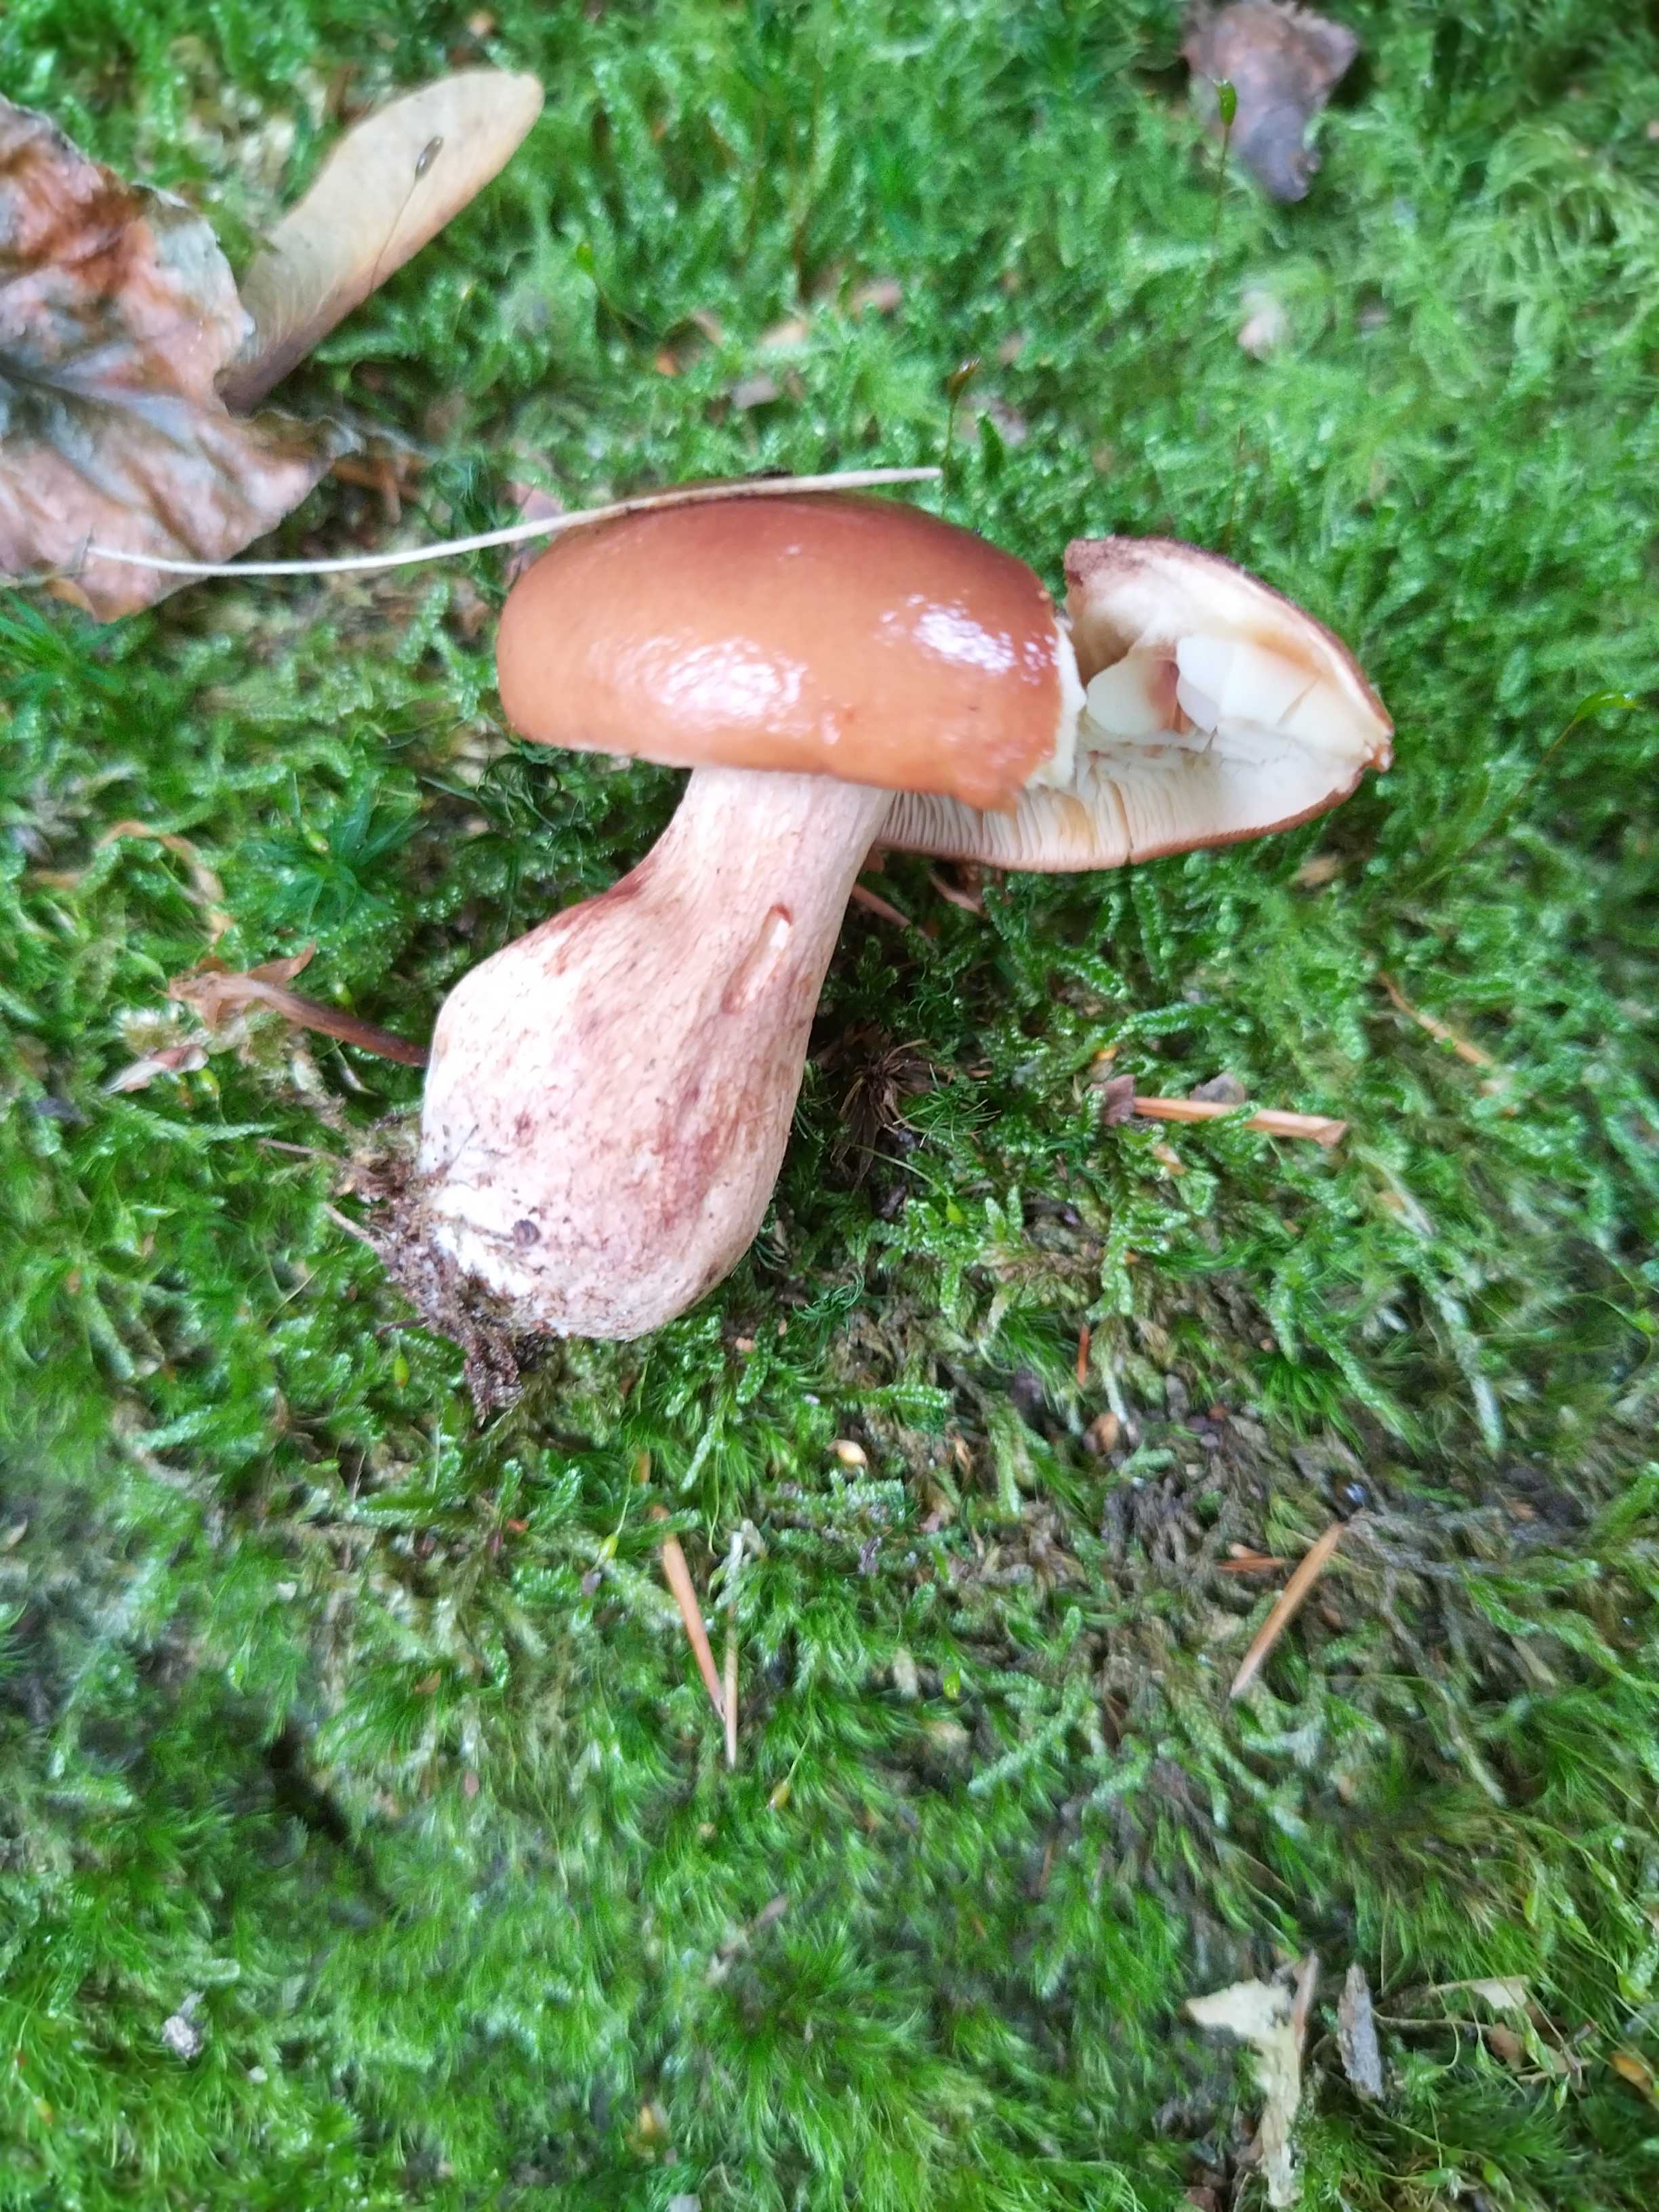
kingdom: Fungi
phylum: Basidiomycota
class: Agaricomycetes
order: Agaricales
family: Tricholomataceae
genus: Tricholoma
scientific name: Tricholoma ustale
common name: sveden ridderhat
